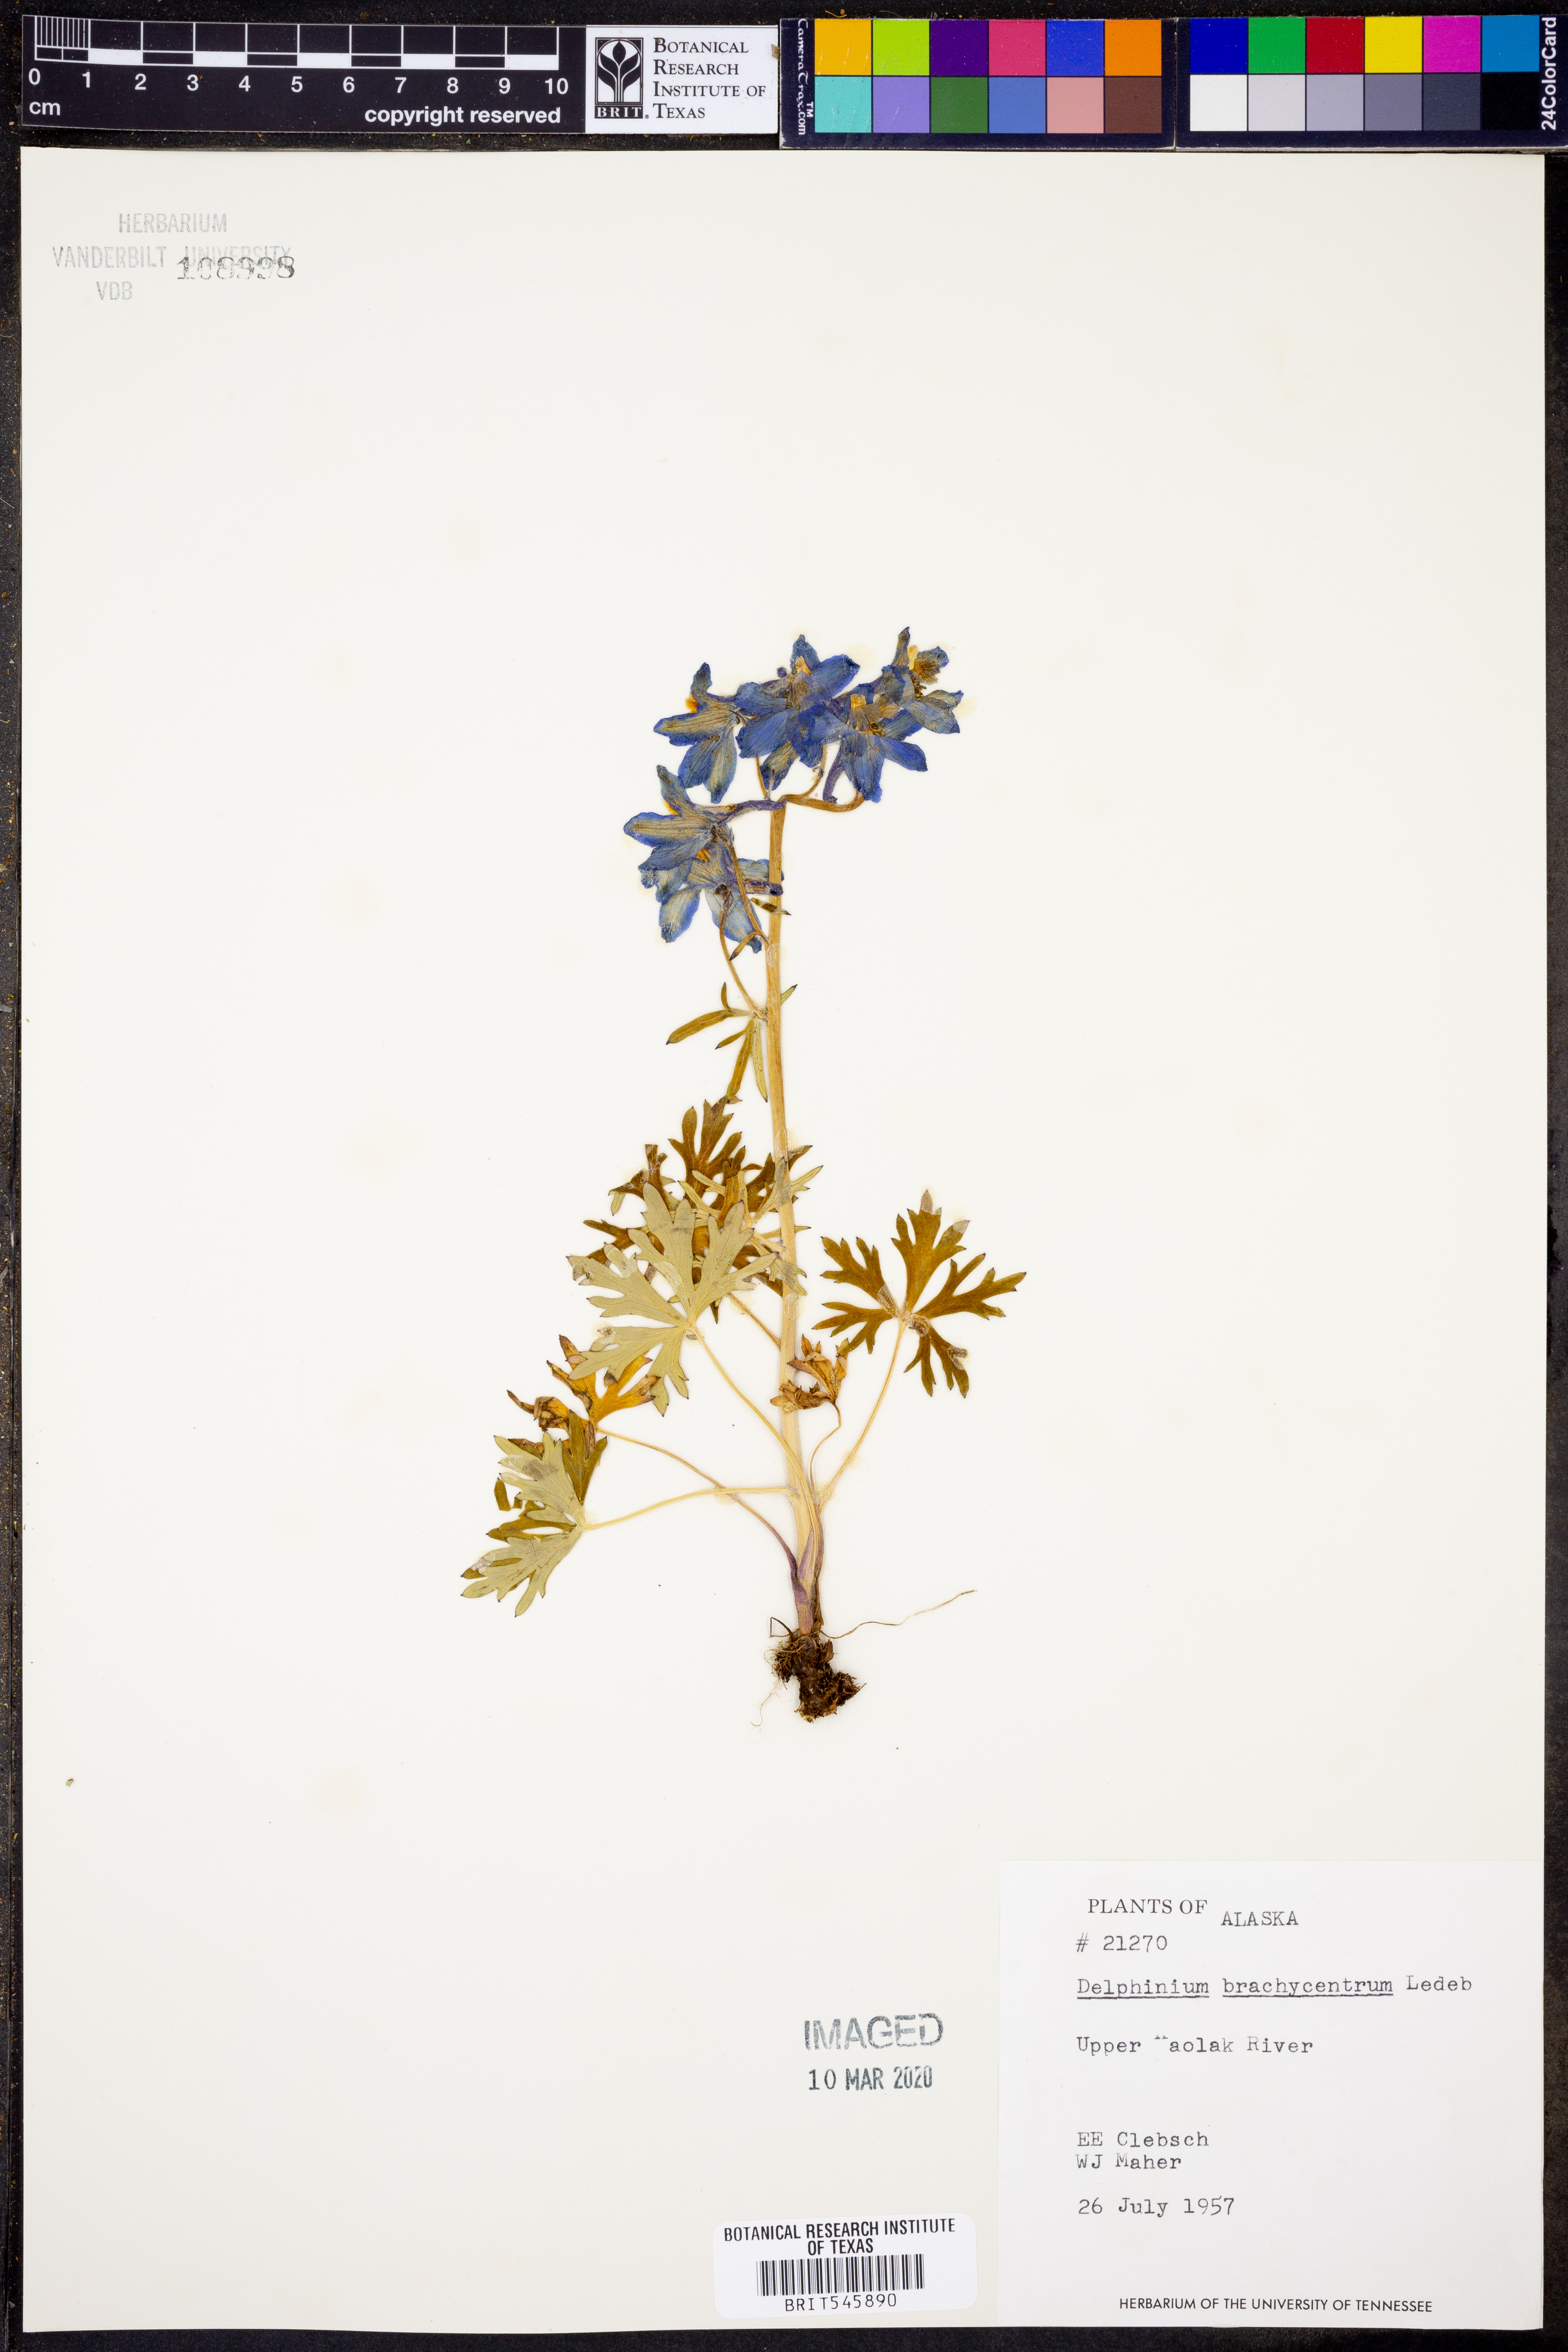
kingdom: Plantae
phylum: Tracheophyta
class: Magnoliopsida
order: Ranunculales
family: Ranunculaceae
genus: Delphinium
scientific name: Delphinium brachycentrum
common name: Arctic larkspur
